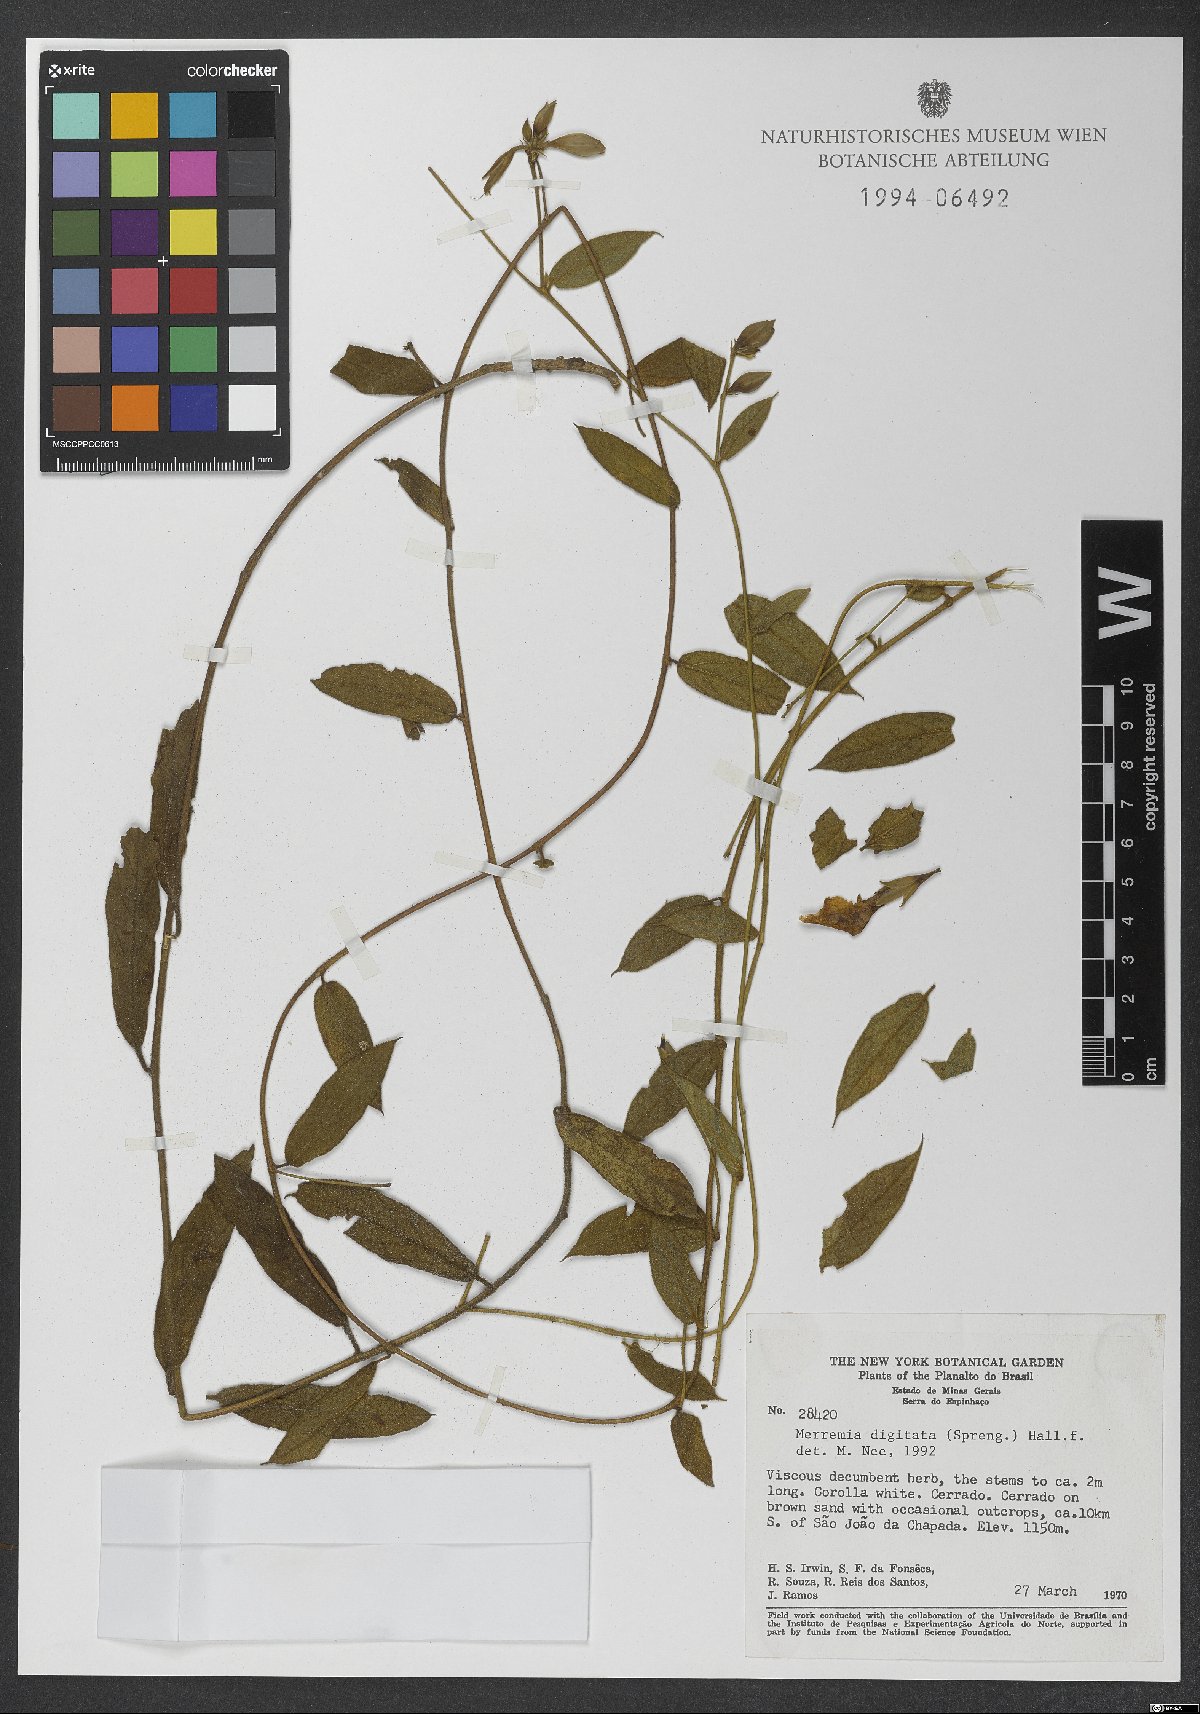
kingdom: Plantae
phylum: Tracheophyta
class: Magnoliopsida
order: Solanales
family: Convolvulaceae
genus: Distimake
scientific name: Distimake digitatus
